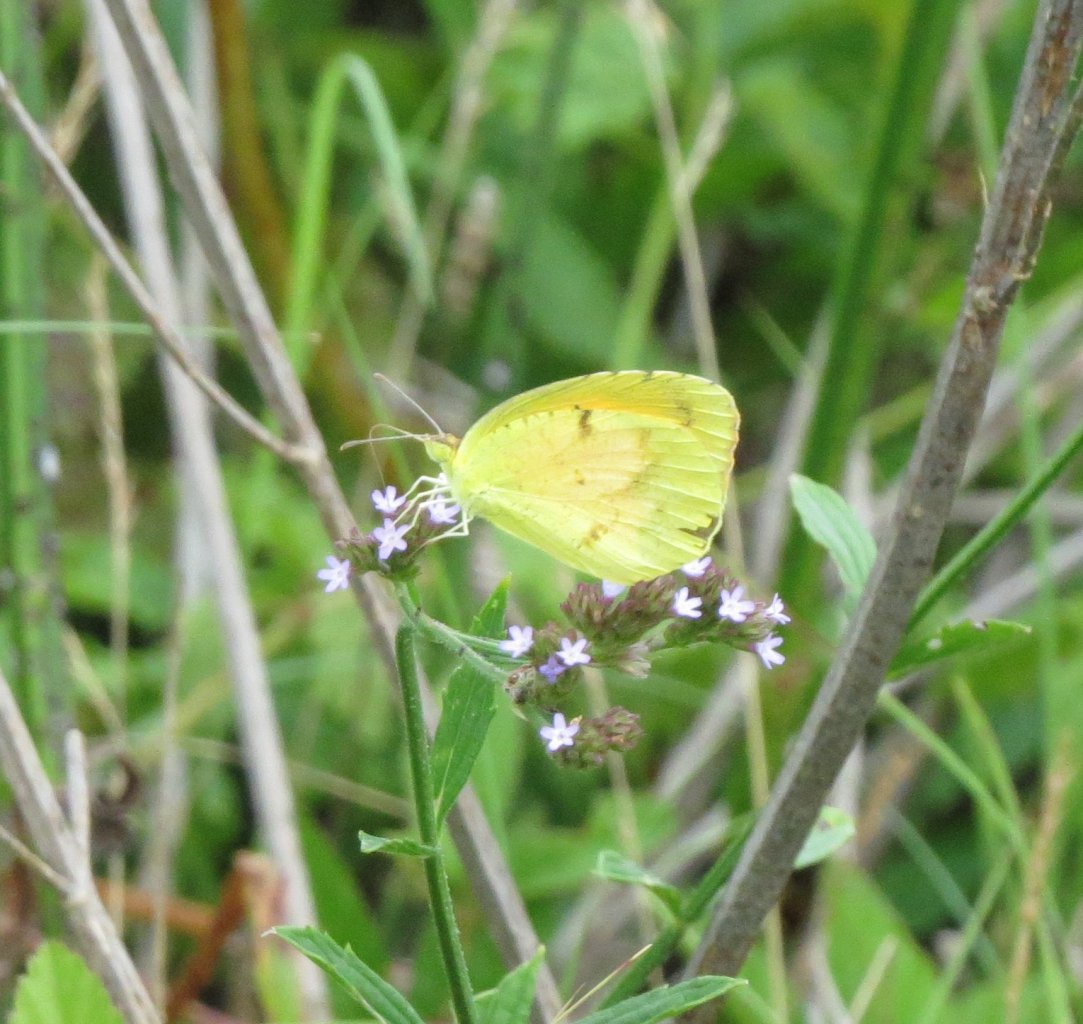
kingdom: Animalia
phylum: Arthropoda
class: Insecta
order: Lepidoptera
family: Pieridae
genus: Abaeis
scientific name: Abaeis nicippe
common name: Sleepy Orange
